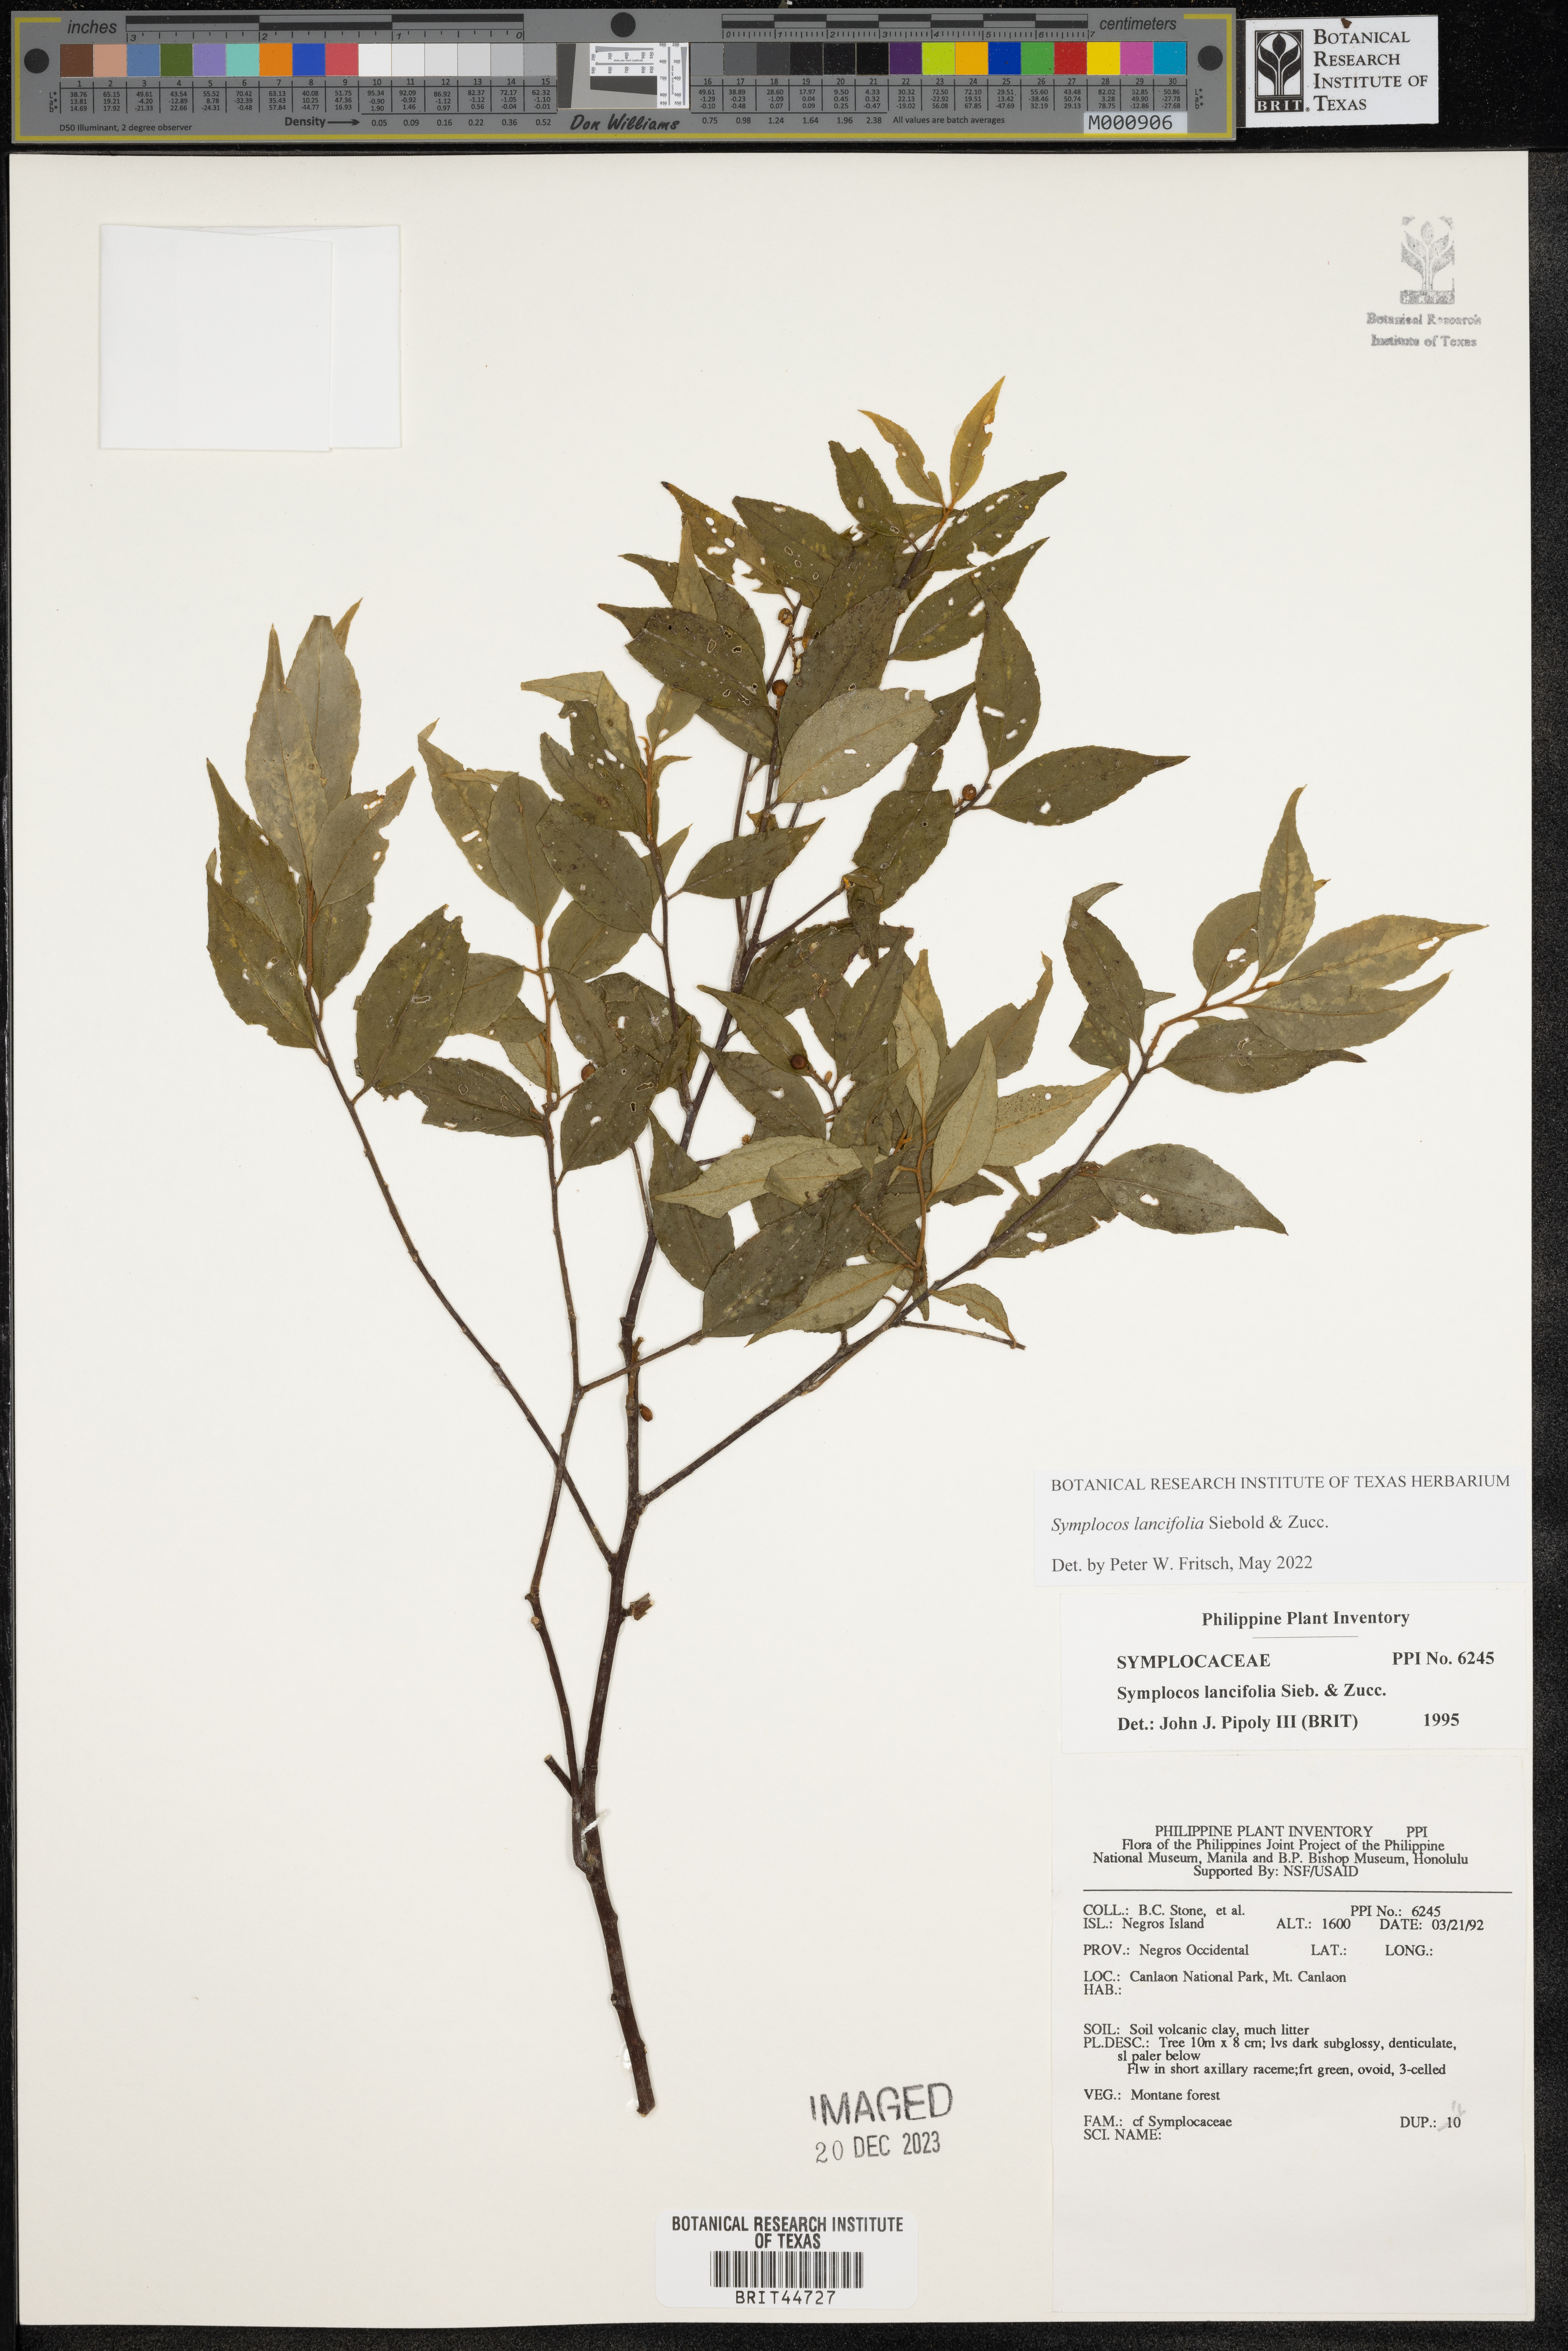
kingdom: Plantae
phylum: Tracheophyta
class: Magnoliopsida
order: Ericales
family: Symplocaceae
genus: Symplocos
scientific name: Symplocos lancifolia
